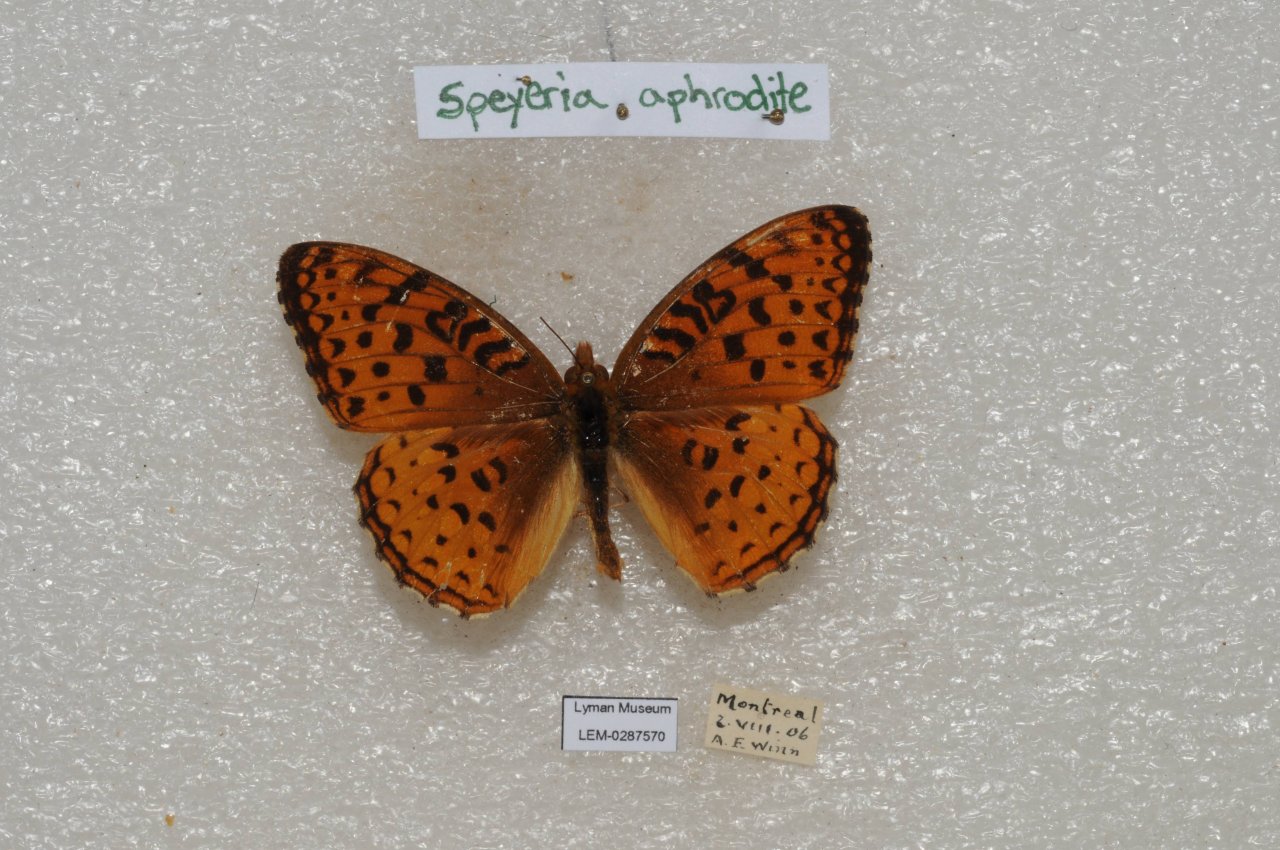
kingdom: Animalia
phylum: Arthropoda
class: Insecta
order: Lepidoptera
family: Nymphalidae
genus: Speyeria
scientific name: Speyeria aphrodite
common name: Aphrodite Fritillary
